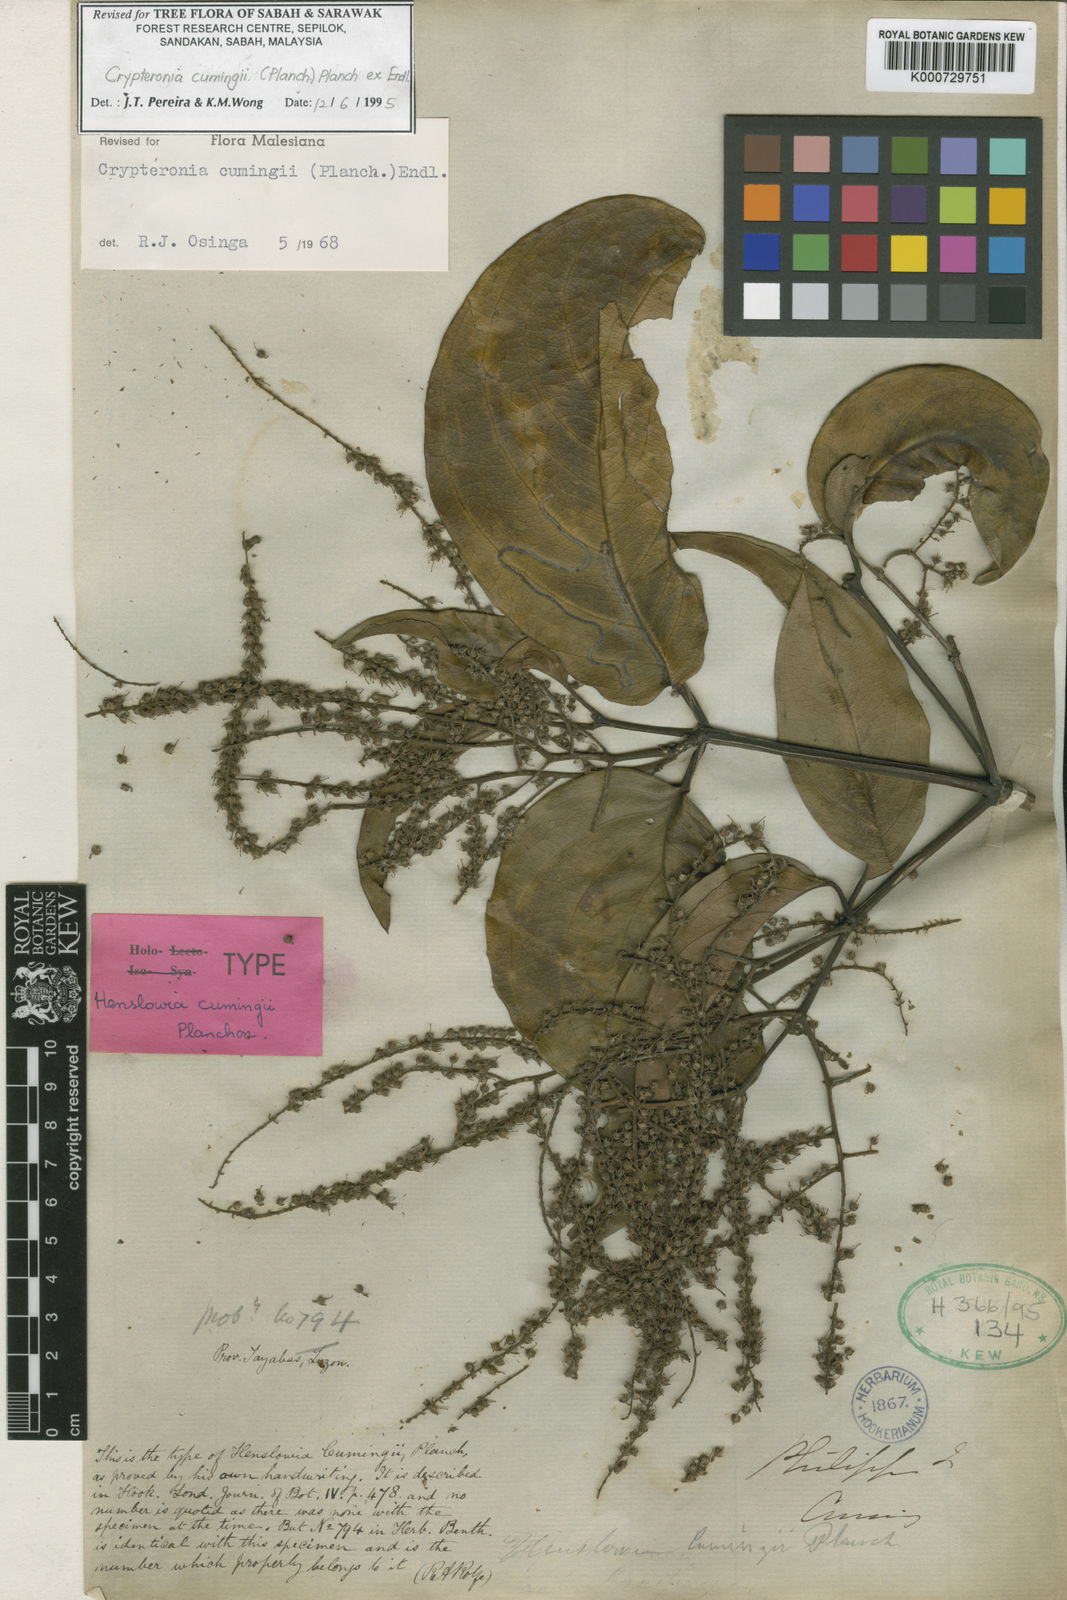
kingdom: Plantae
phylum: Tracheophyta
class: Magnoliopsida
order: Myrtales
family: Crypteroniaceae
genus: Crypteronia
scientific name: Crypteronia cumingii
